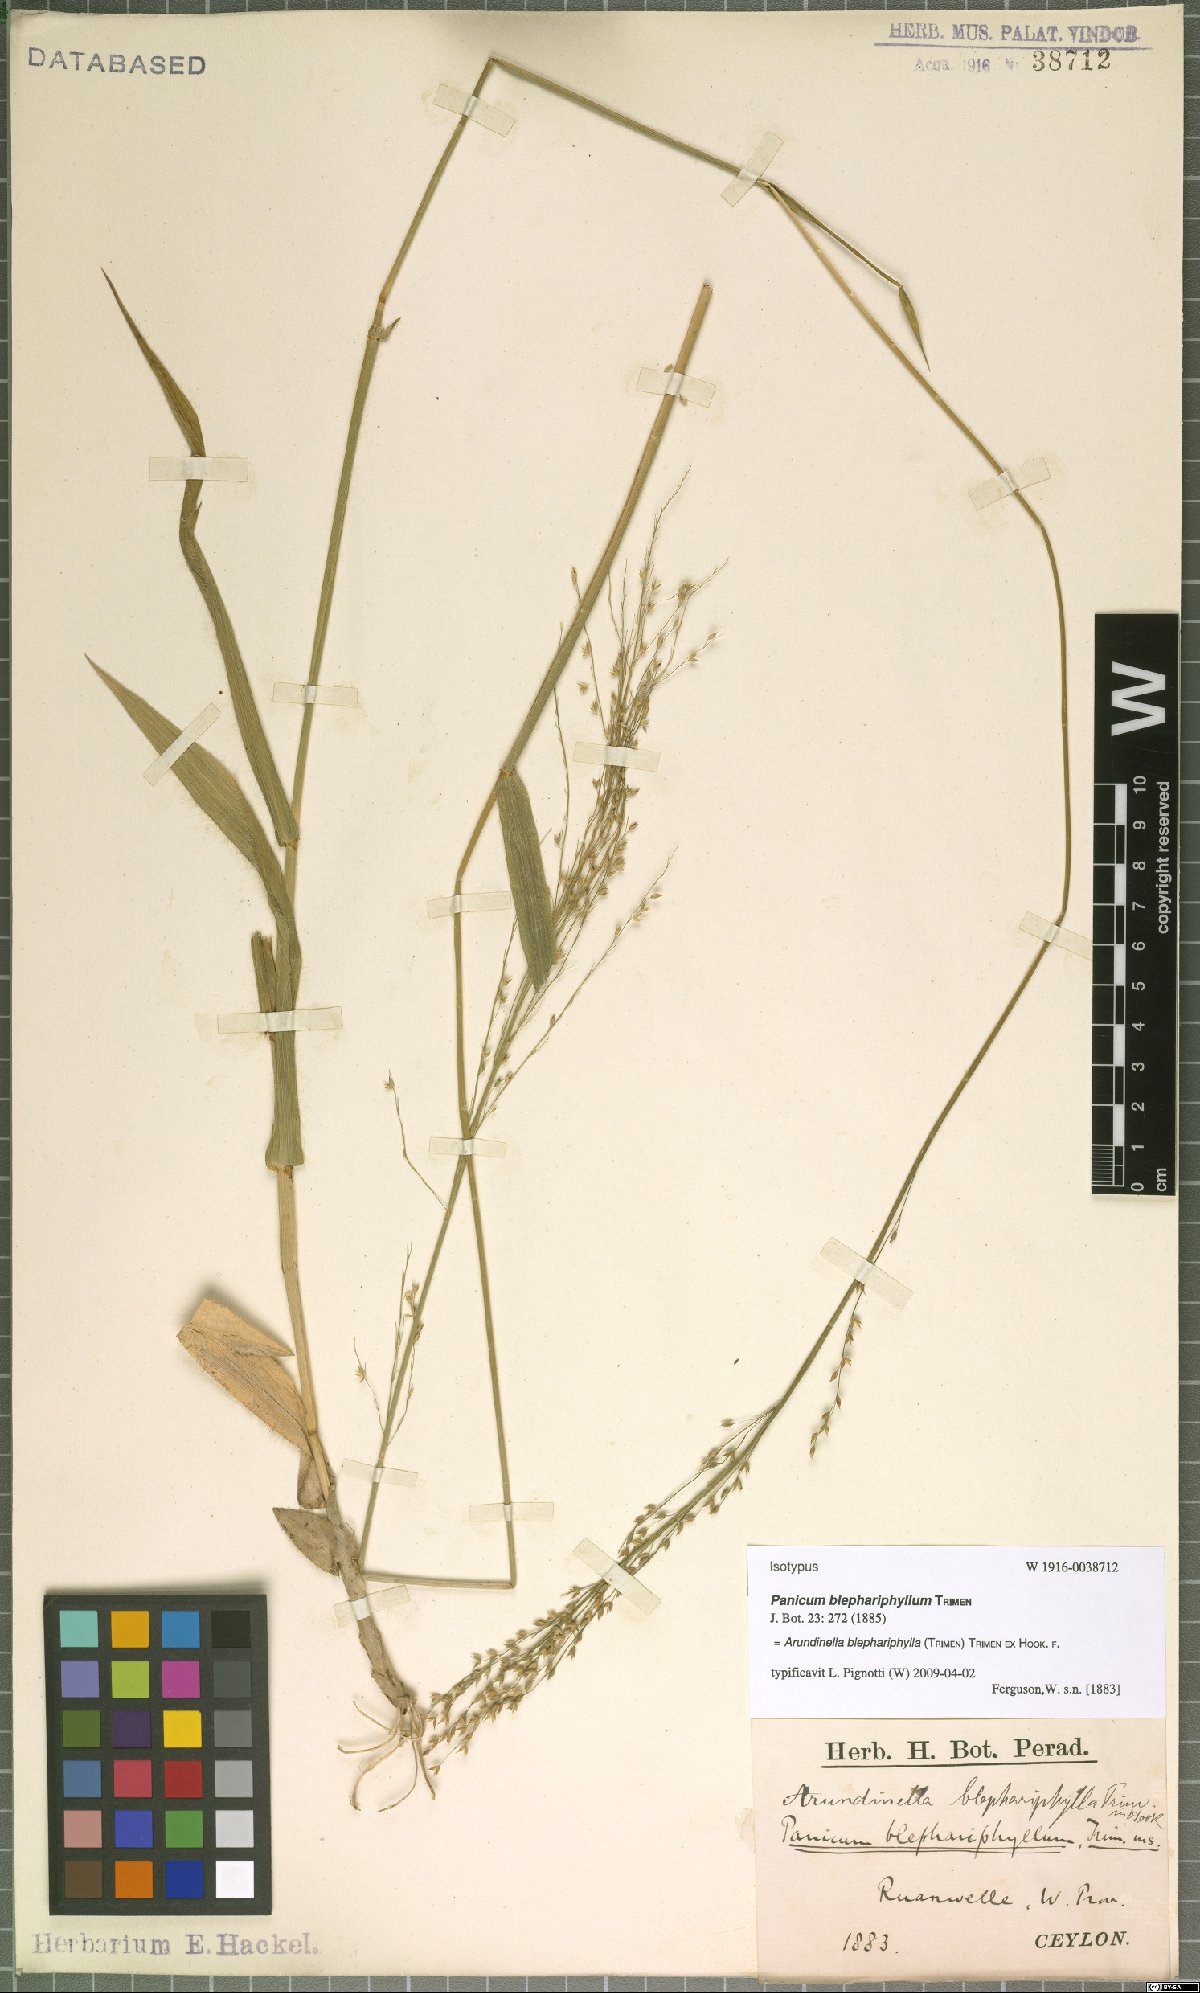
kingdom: Plantae
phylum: Tracheophyta
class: Liliopsida
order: Poales
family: Poaceae
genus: Arundinella
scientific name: Arundinella blephariphylla
